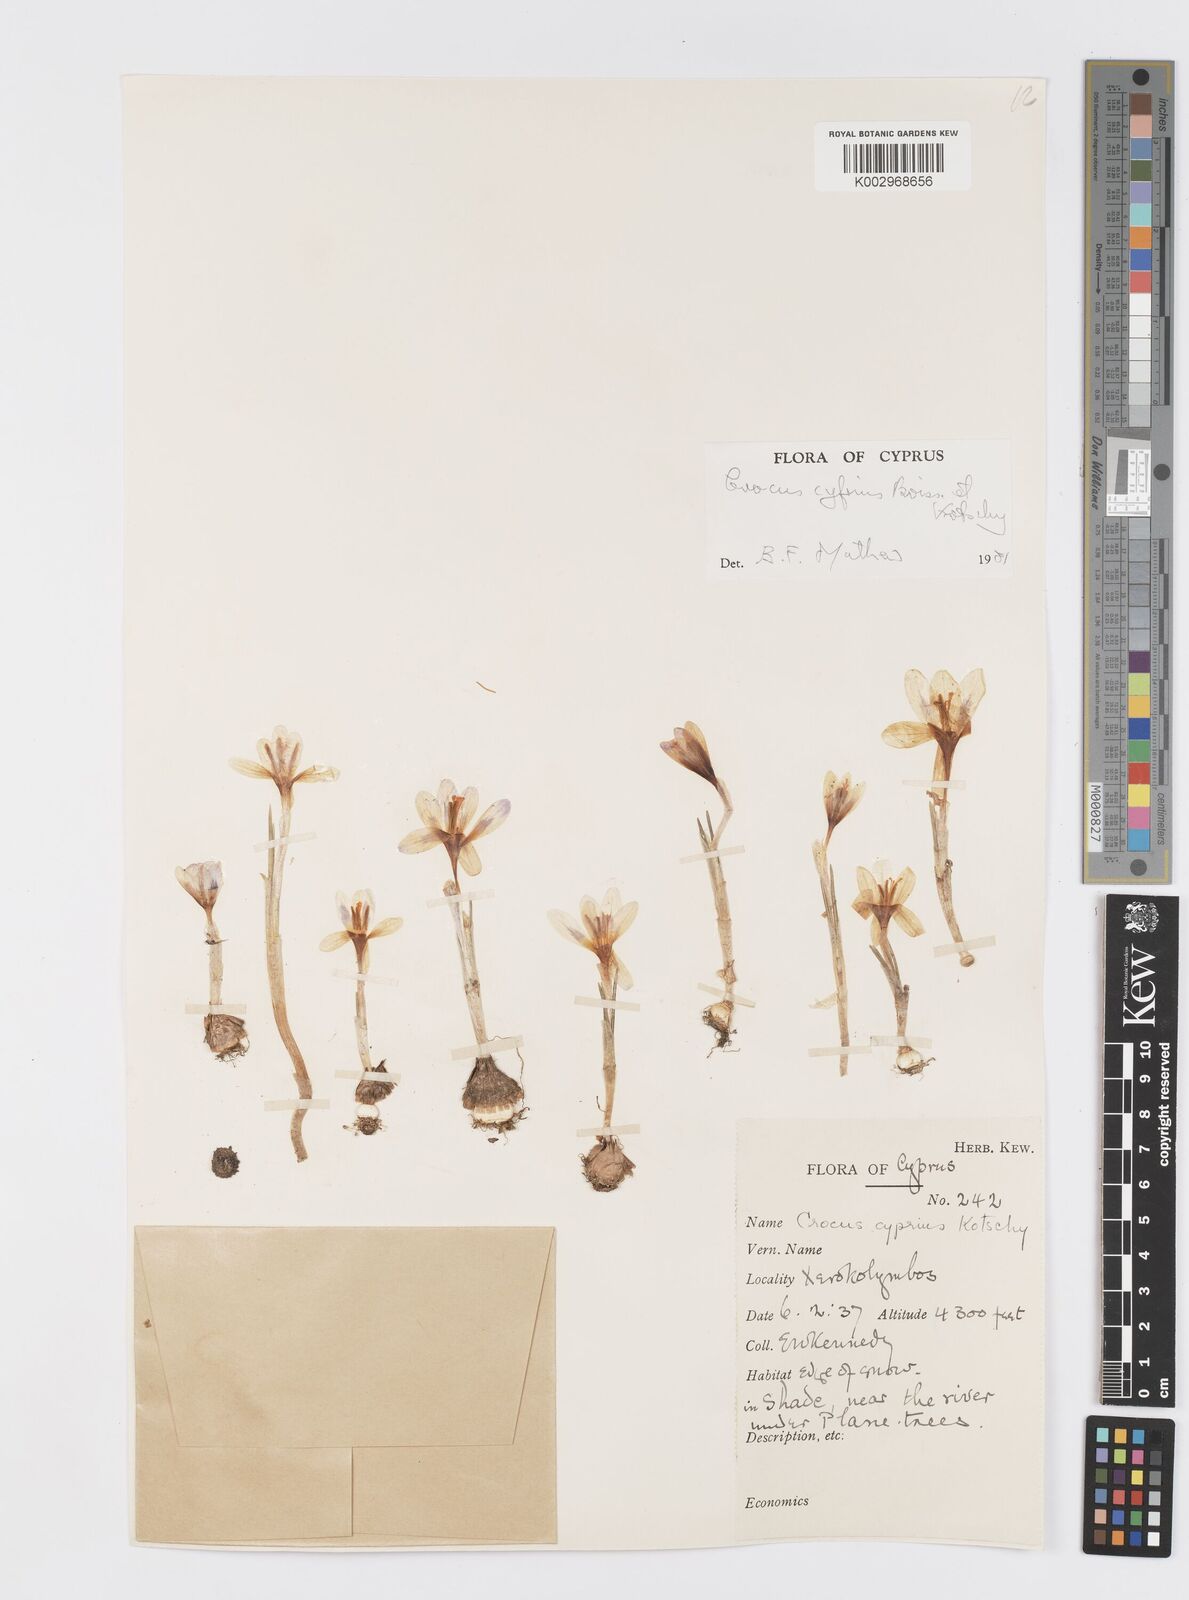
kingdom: Plantae
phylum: Tracheophyta
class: Liliopsida
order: Asparagales
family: Iridaceae
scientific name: Iridaceae
